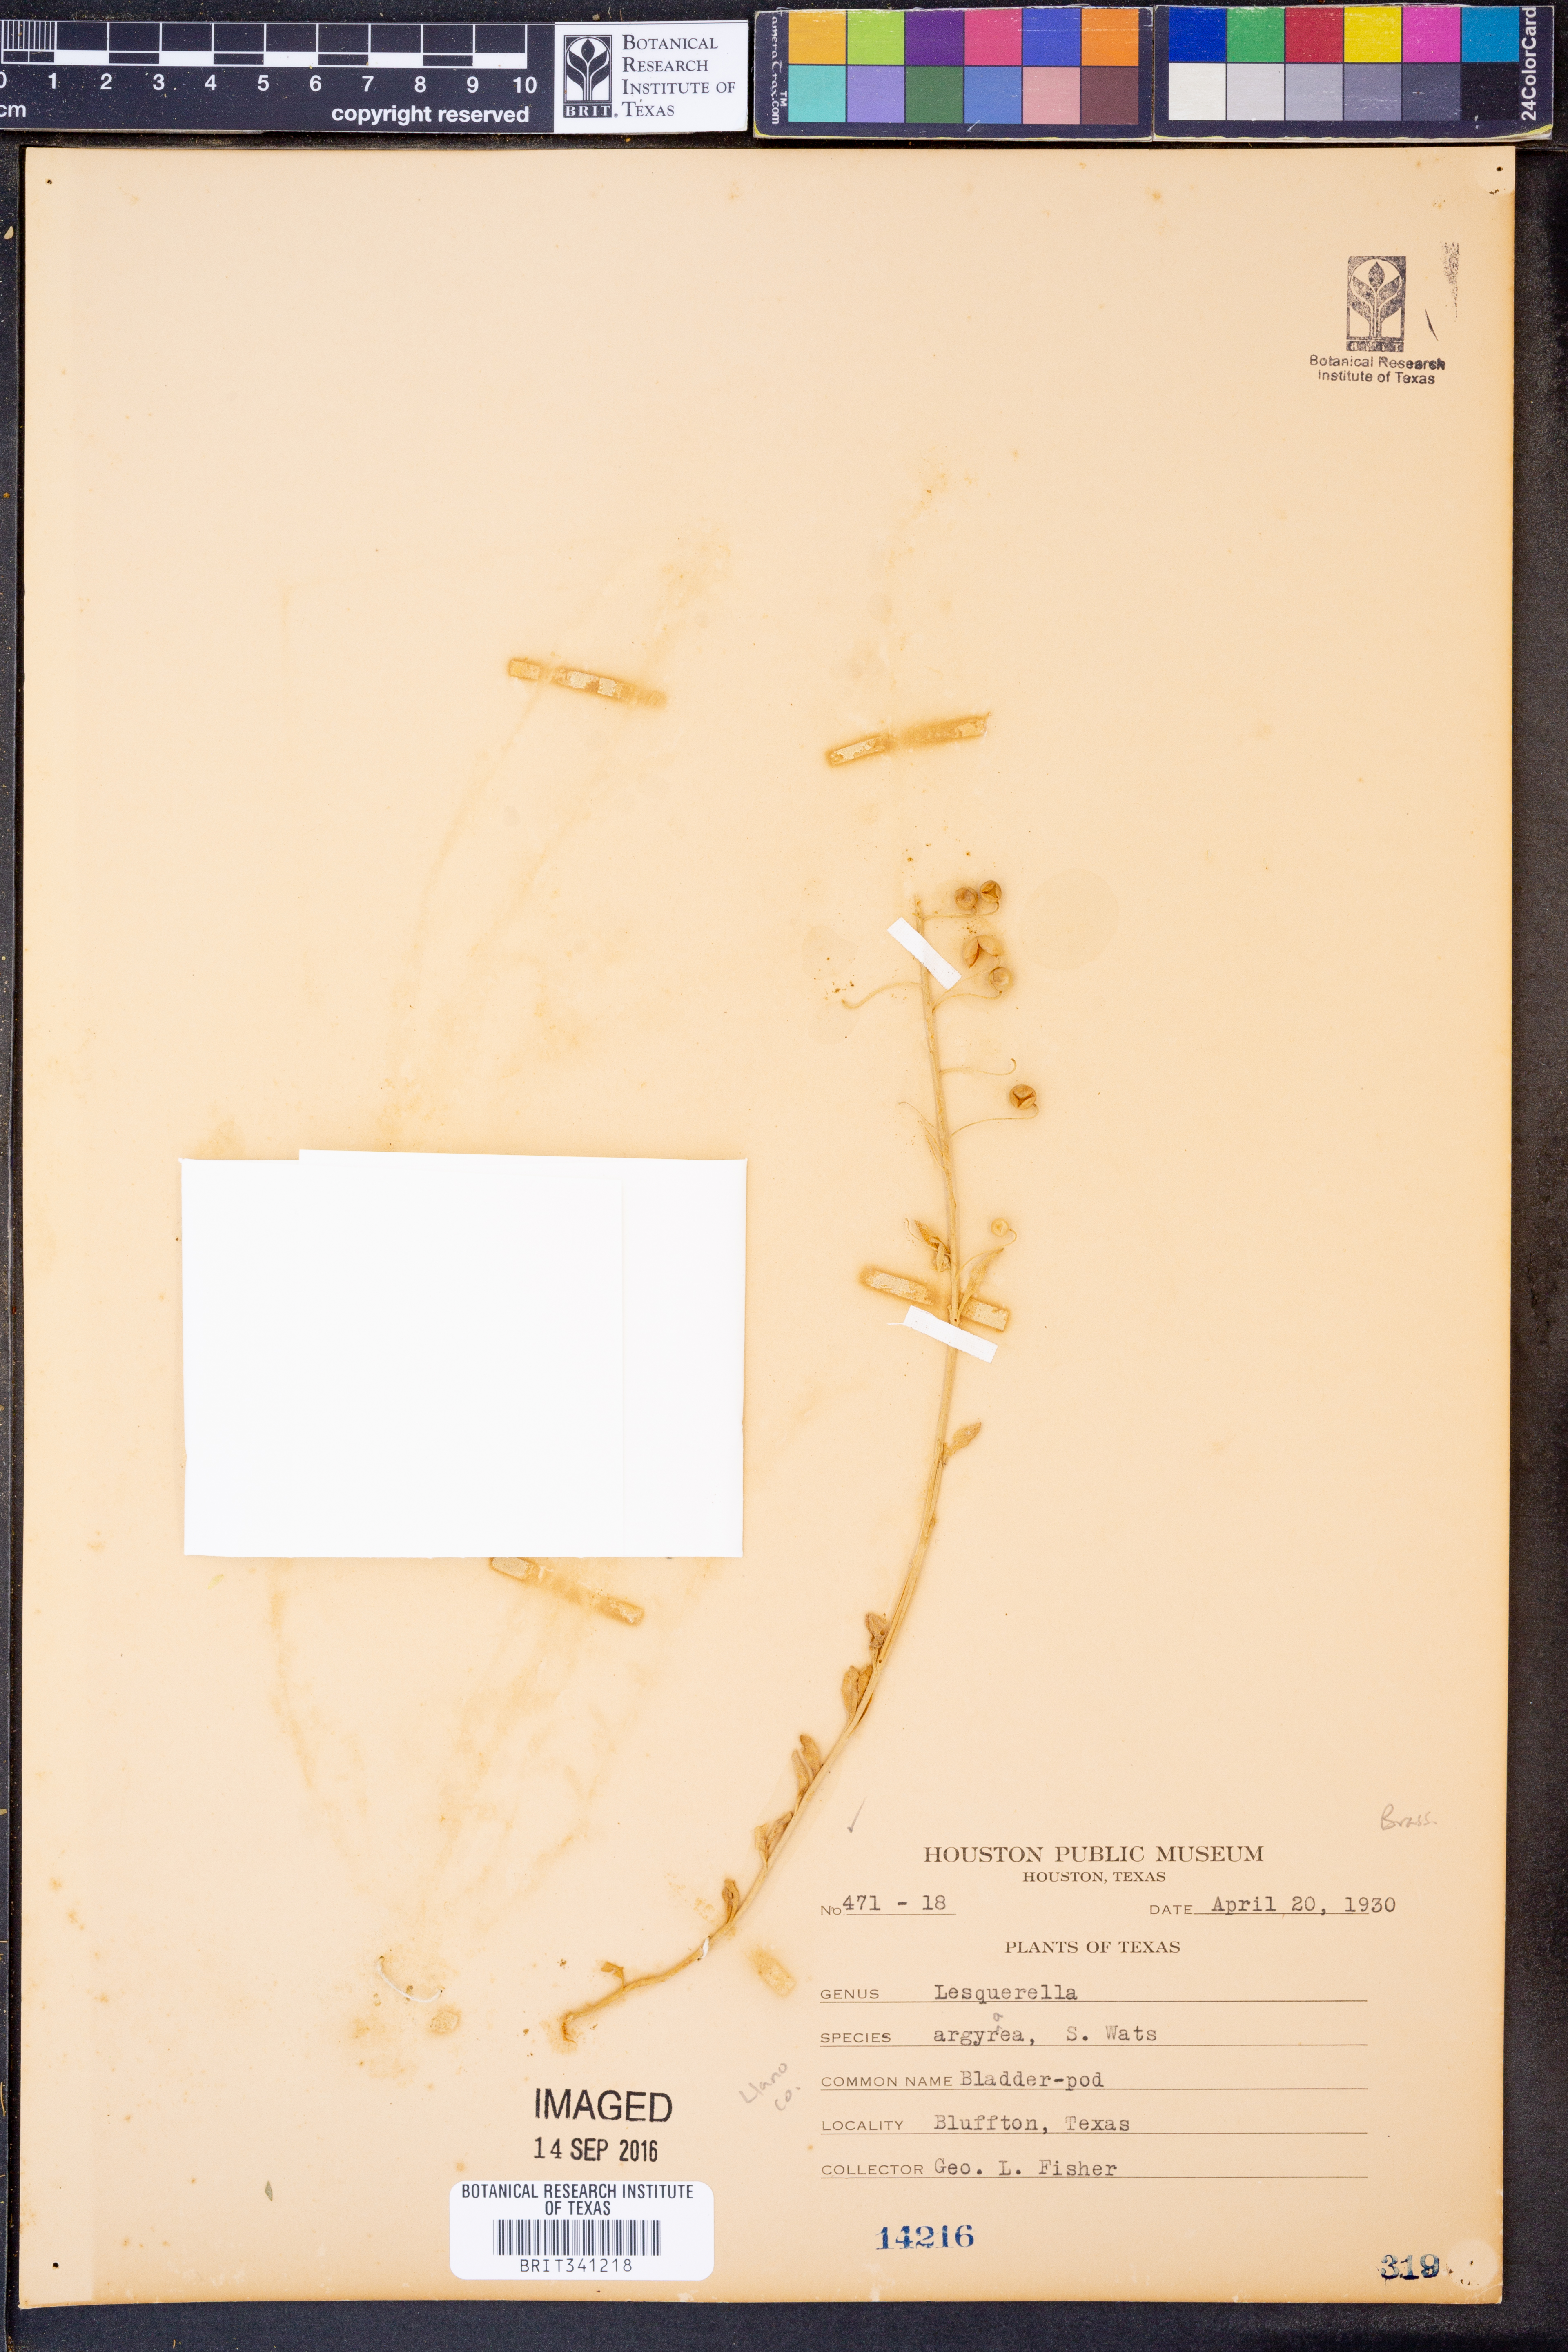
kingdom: Plantae
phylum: Tracheophyta
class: Magnoliopsida
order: Brassicales
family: Brassicaceae
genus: Physaria
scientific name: Physaria argyraea
